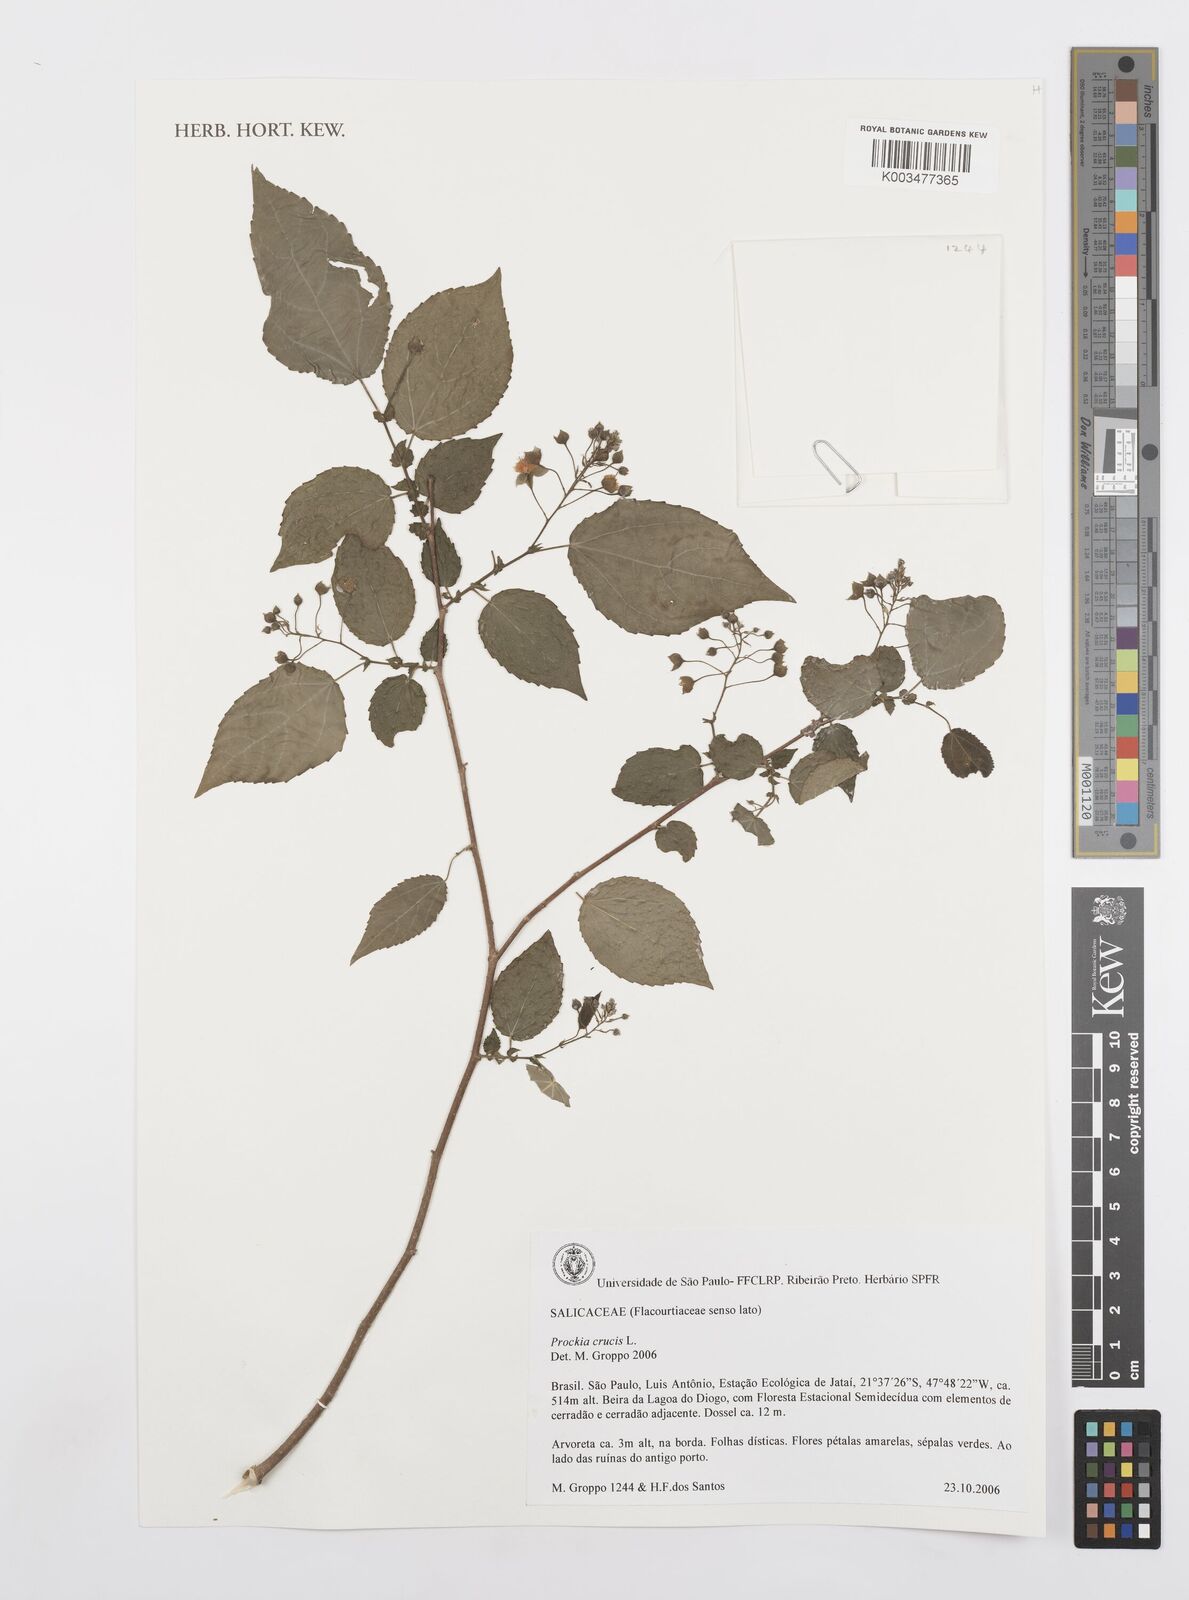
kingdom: Plantae
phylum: Tracheophyta
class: Magnoliopsida
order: Malpighiales
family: Salicaceae
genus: Prockia
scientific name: Prockia crucis
